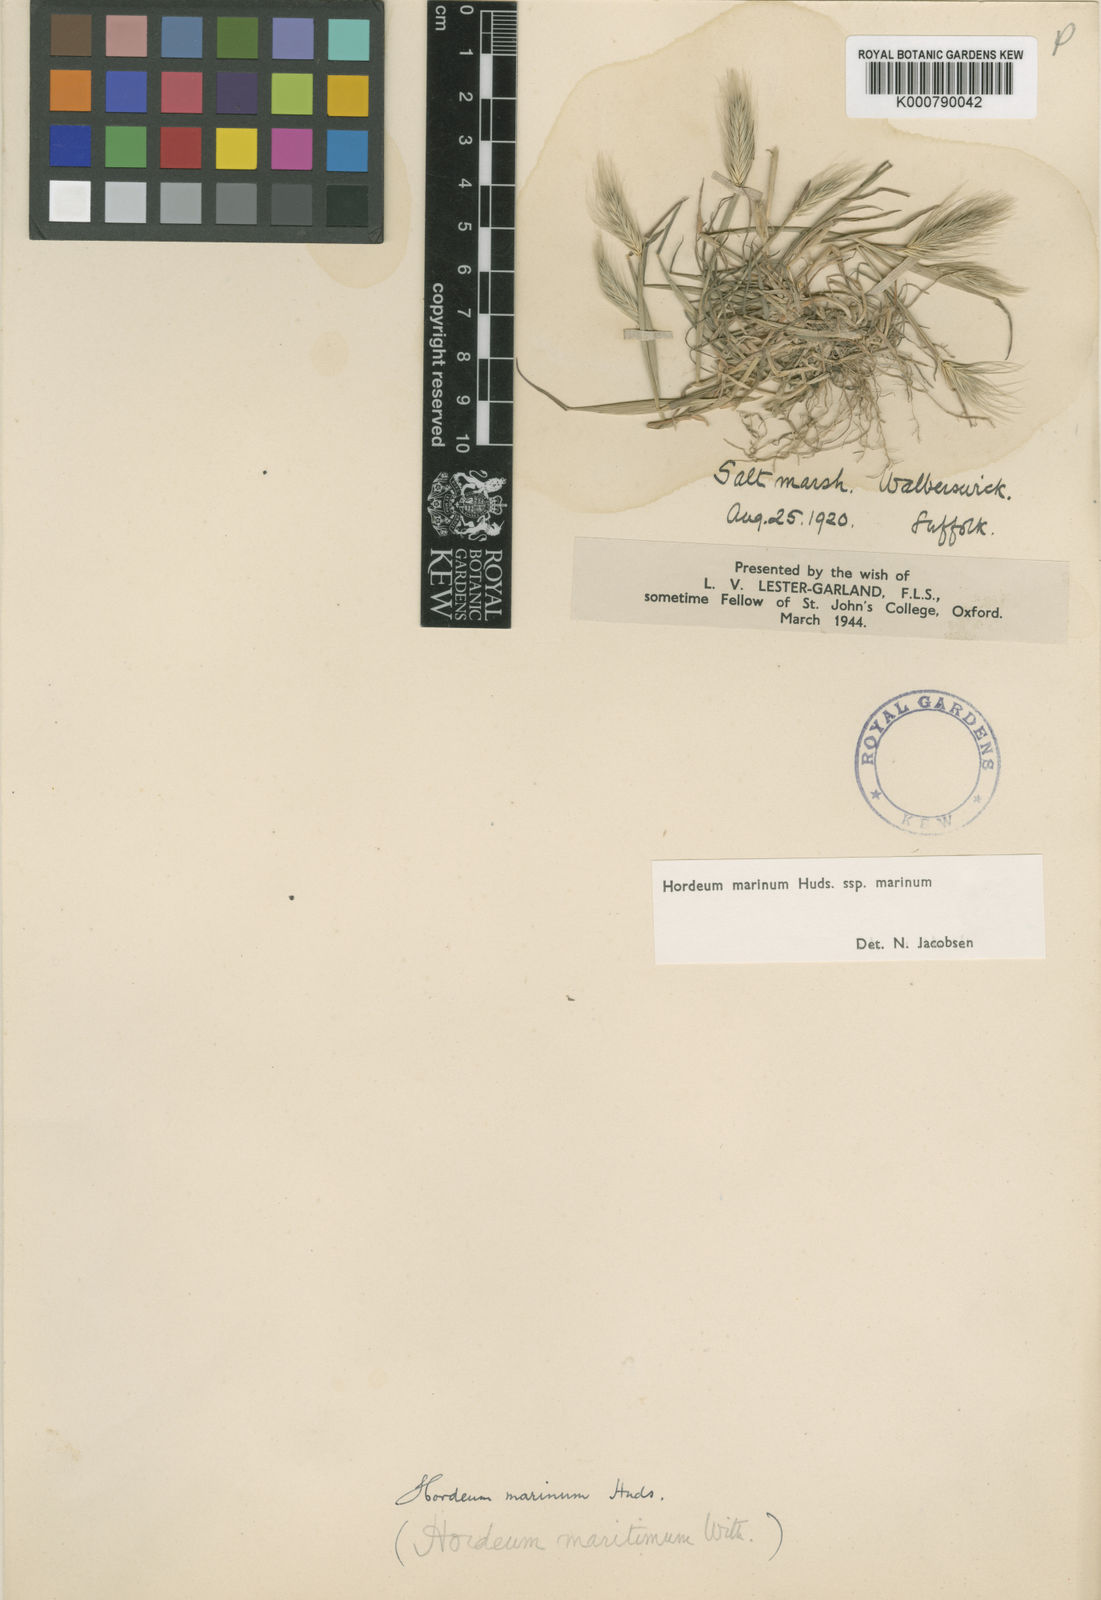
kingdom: Plantae
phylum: Tracheophyta
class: Liliopsida
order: Poales
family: Poaceae
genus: Hordeum
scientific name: Hordeum marinum
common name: Sea barley
